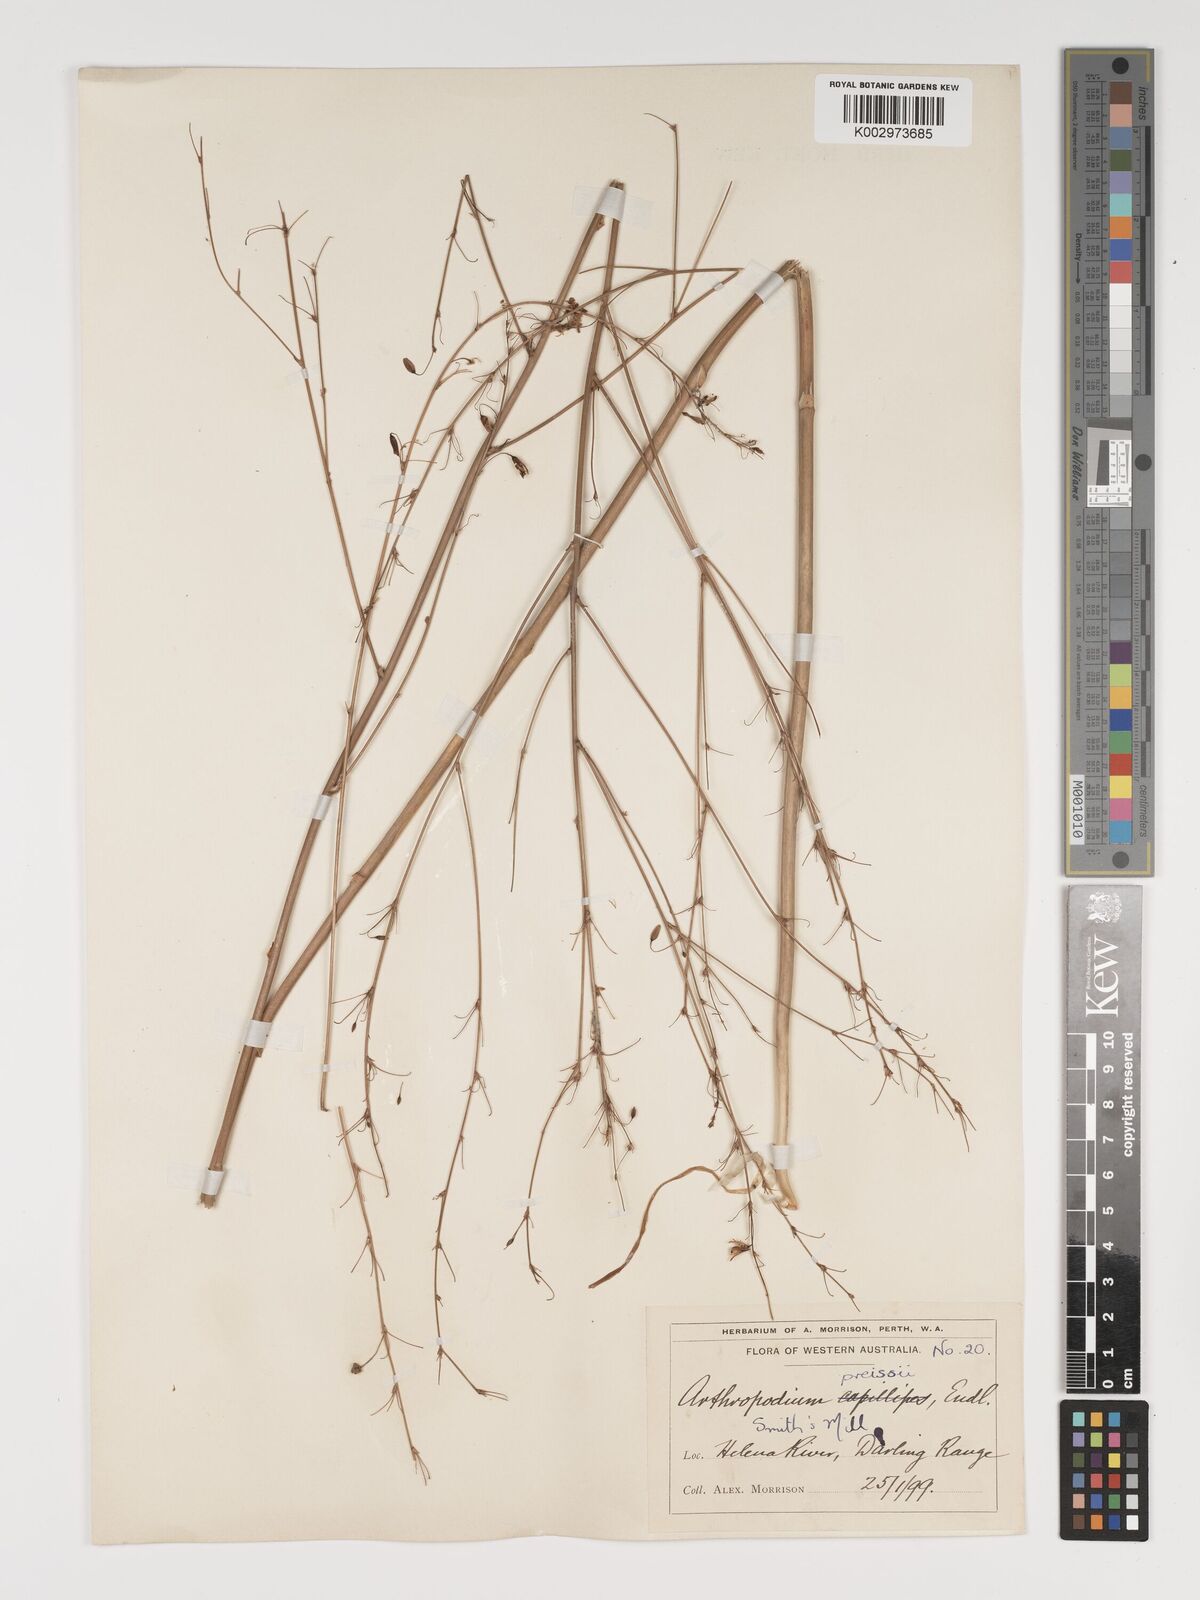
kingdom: Plantae
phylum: Tracheophyta
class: Liliopsida
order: Asparagales
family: Asparagaceae
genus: Dichopogon
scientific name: Dichopogon capillipes
